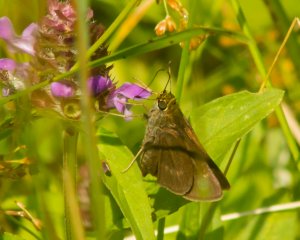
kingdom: Animalia
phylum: Arthropoda
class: Insecta
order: Lepidoptera
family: Hesperiidae
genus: Polites
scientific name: Polites egeremet
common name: Northern Broken-Dash
